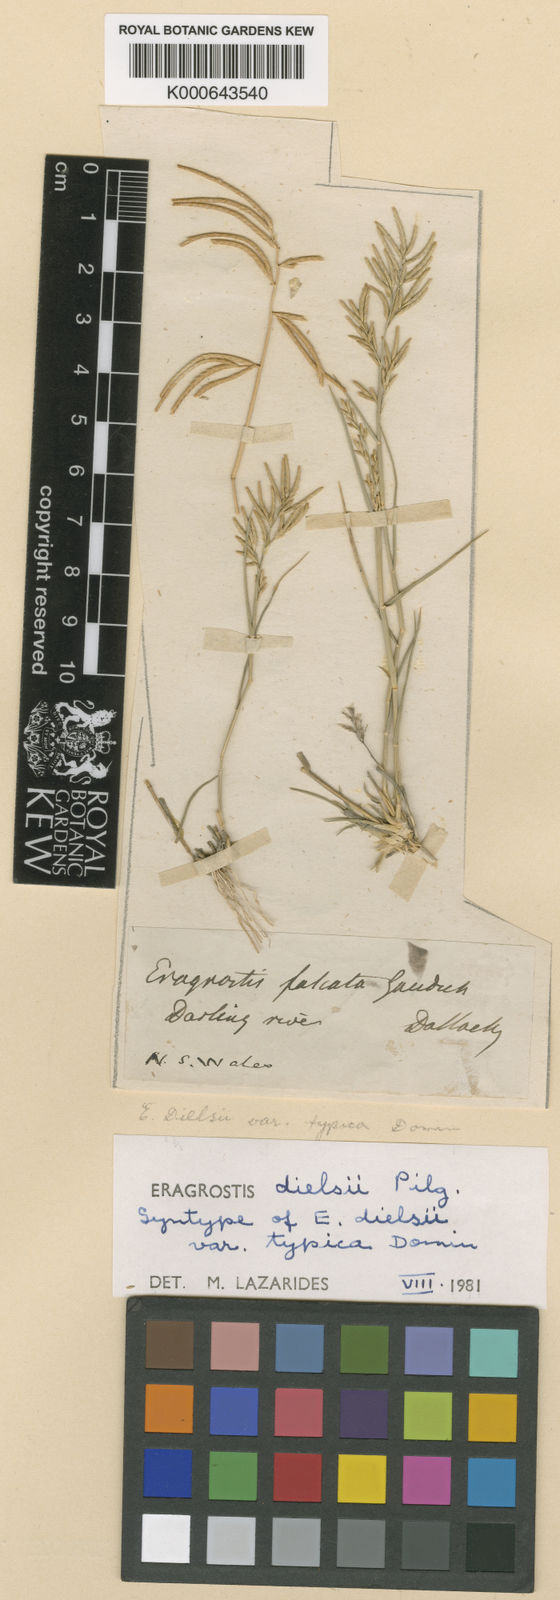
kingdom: Plantae
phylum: Tracheophyta
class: Liliopsida
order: Poales
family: Poaceae
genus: Eragrostis
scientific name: Eragrostis
